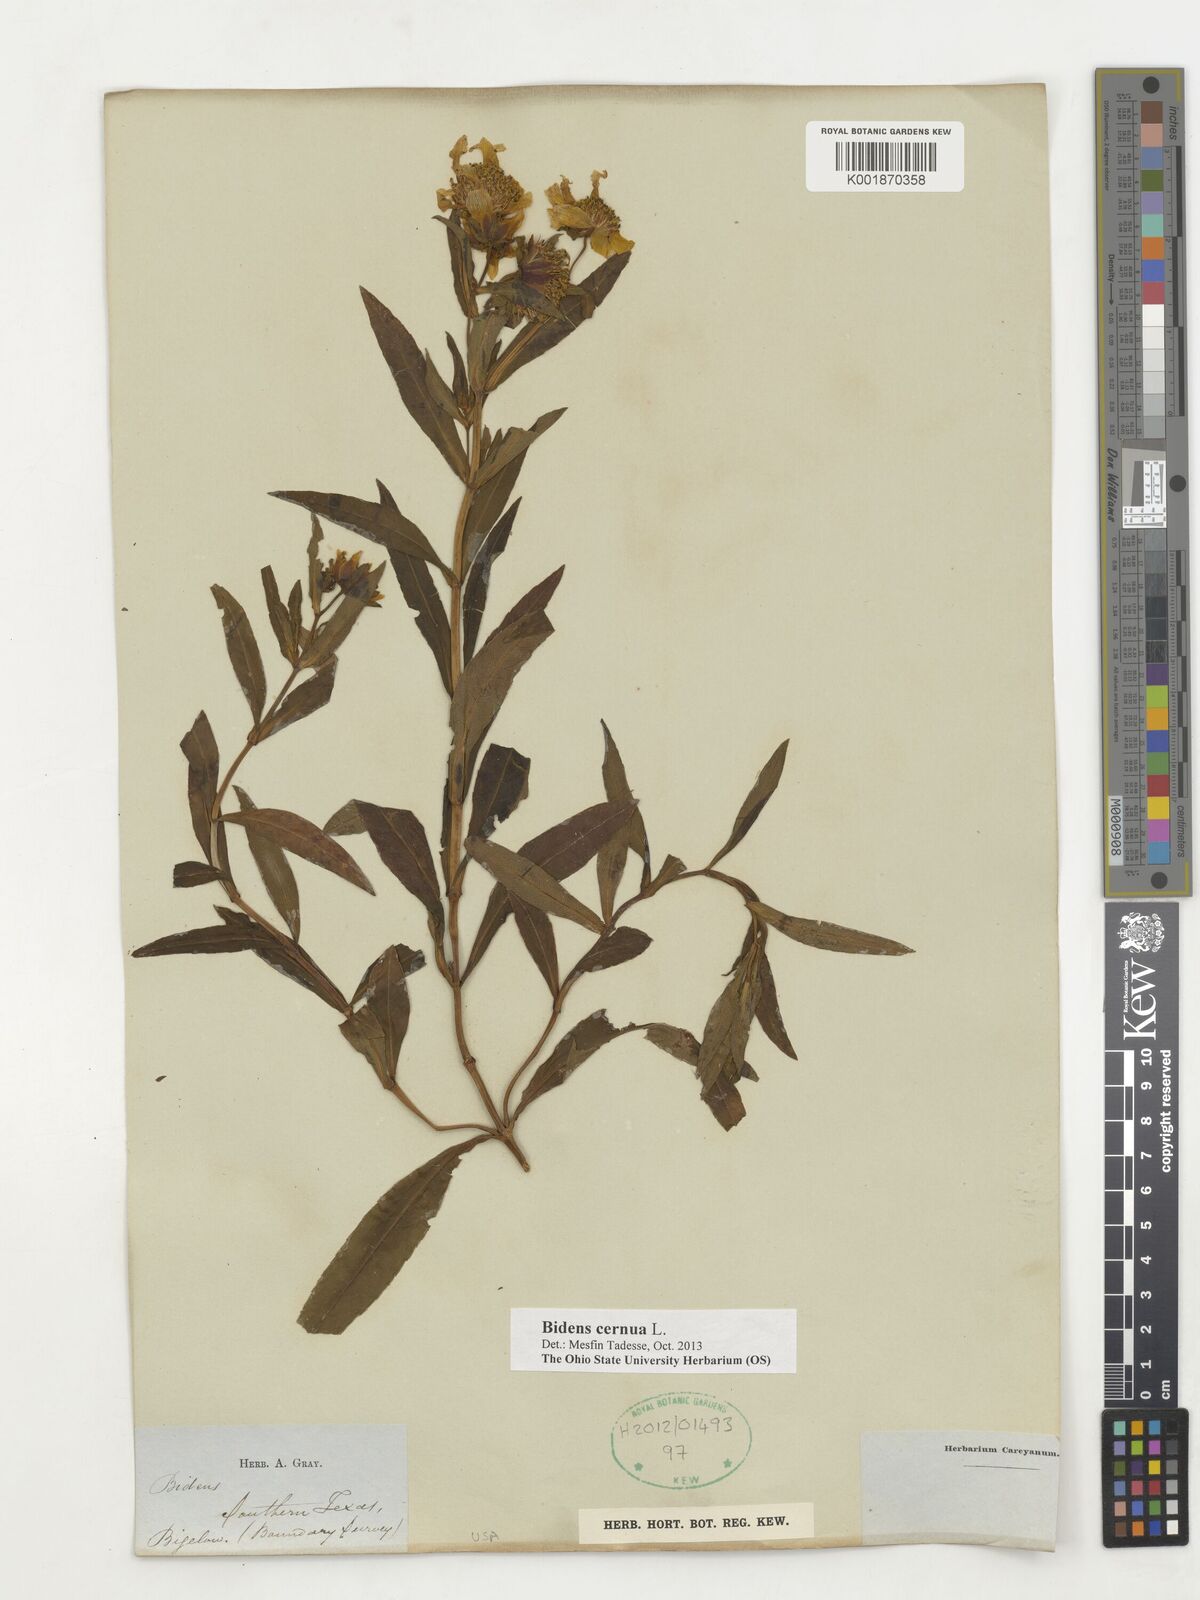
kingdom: Plantae
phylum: Tracheophyta
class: Magnoliopsida
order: Asterales
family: Asteraceae
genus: Bidens
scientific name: Bidens cernua
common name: Nodding bur-marigold
